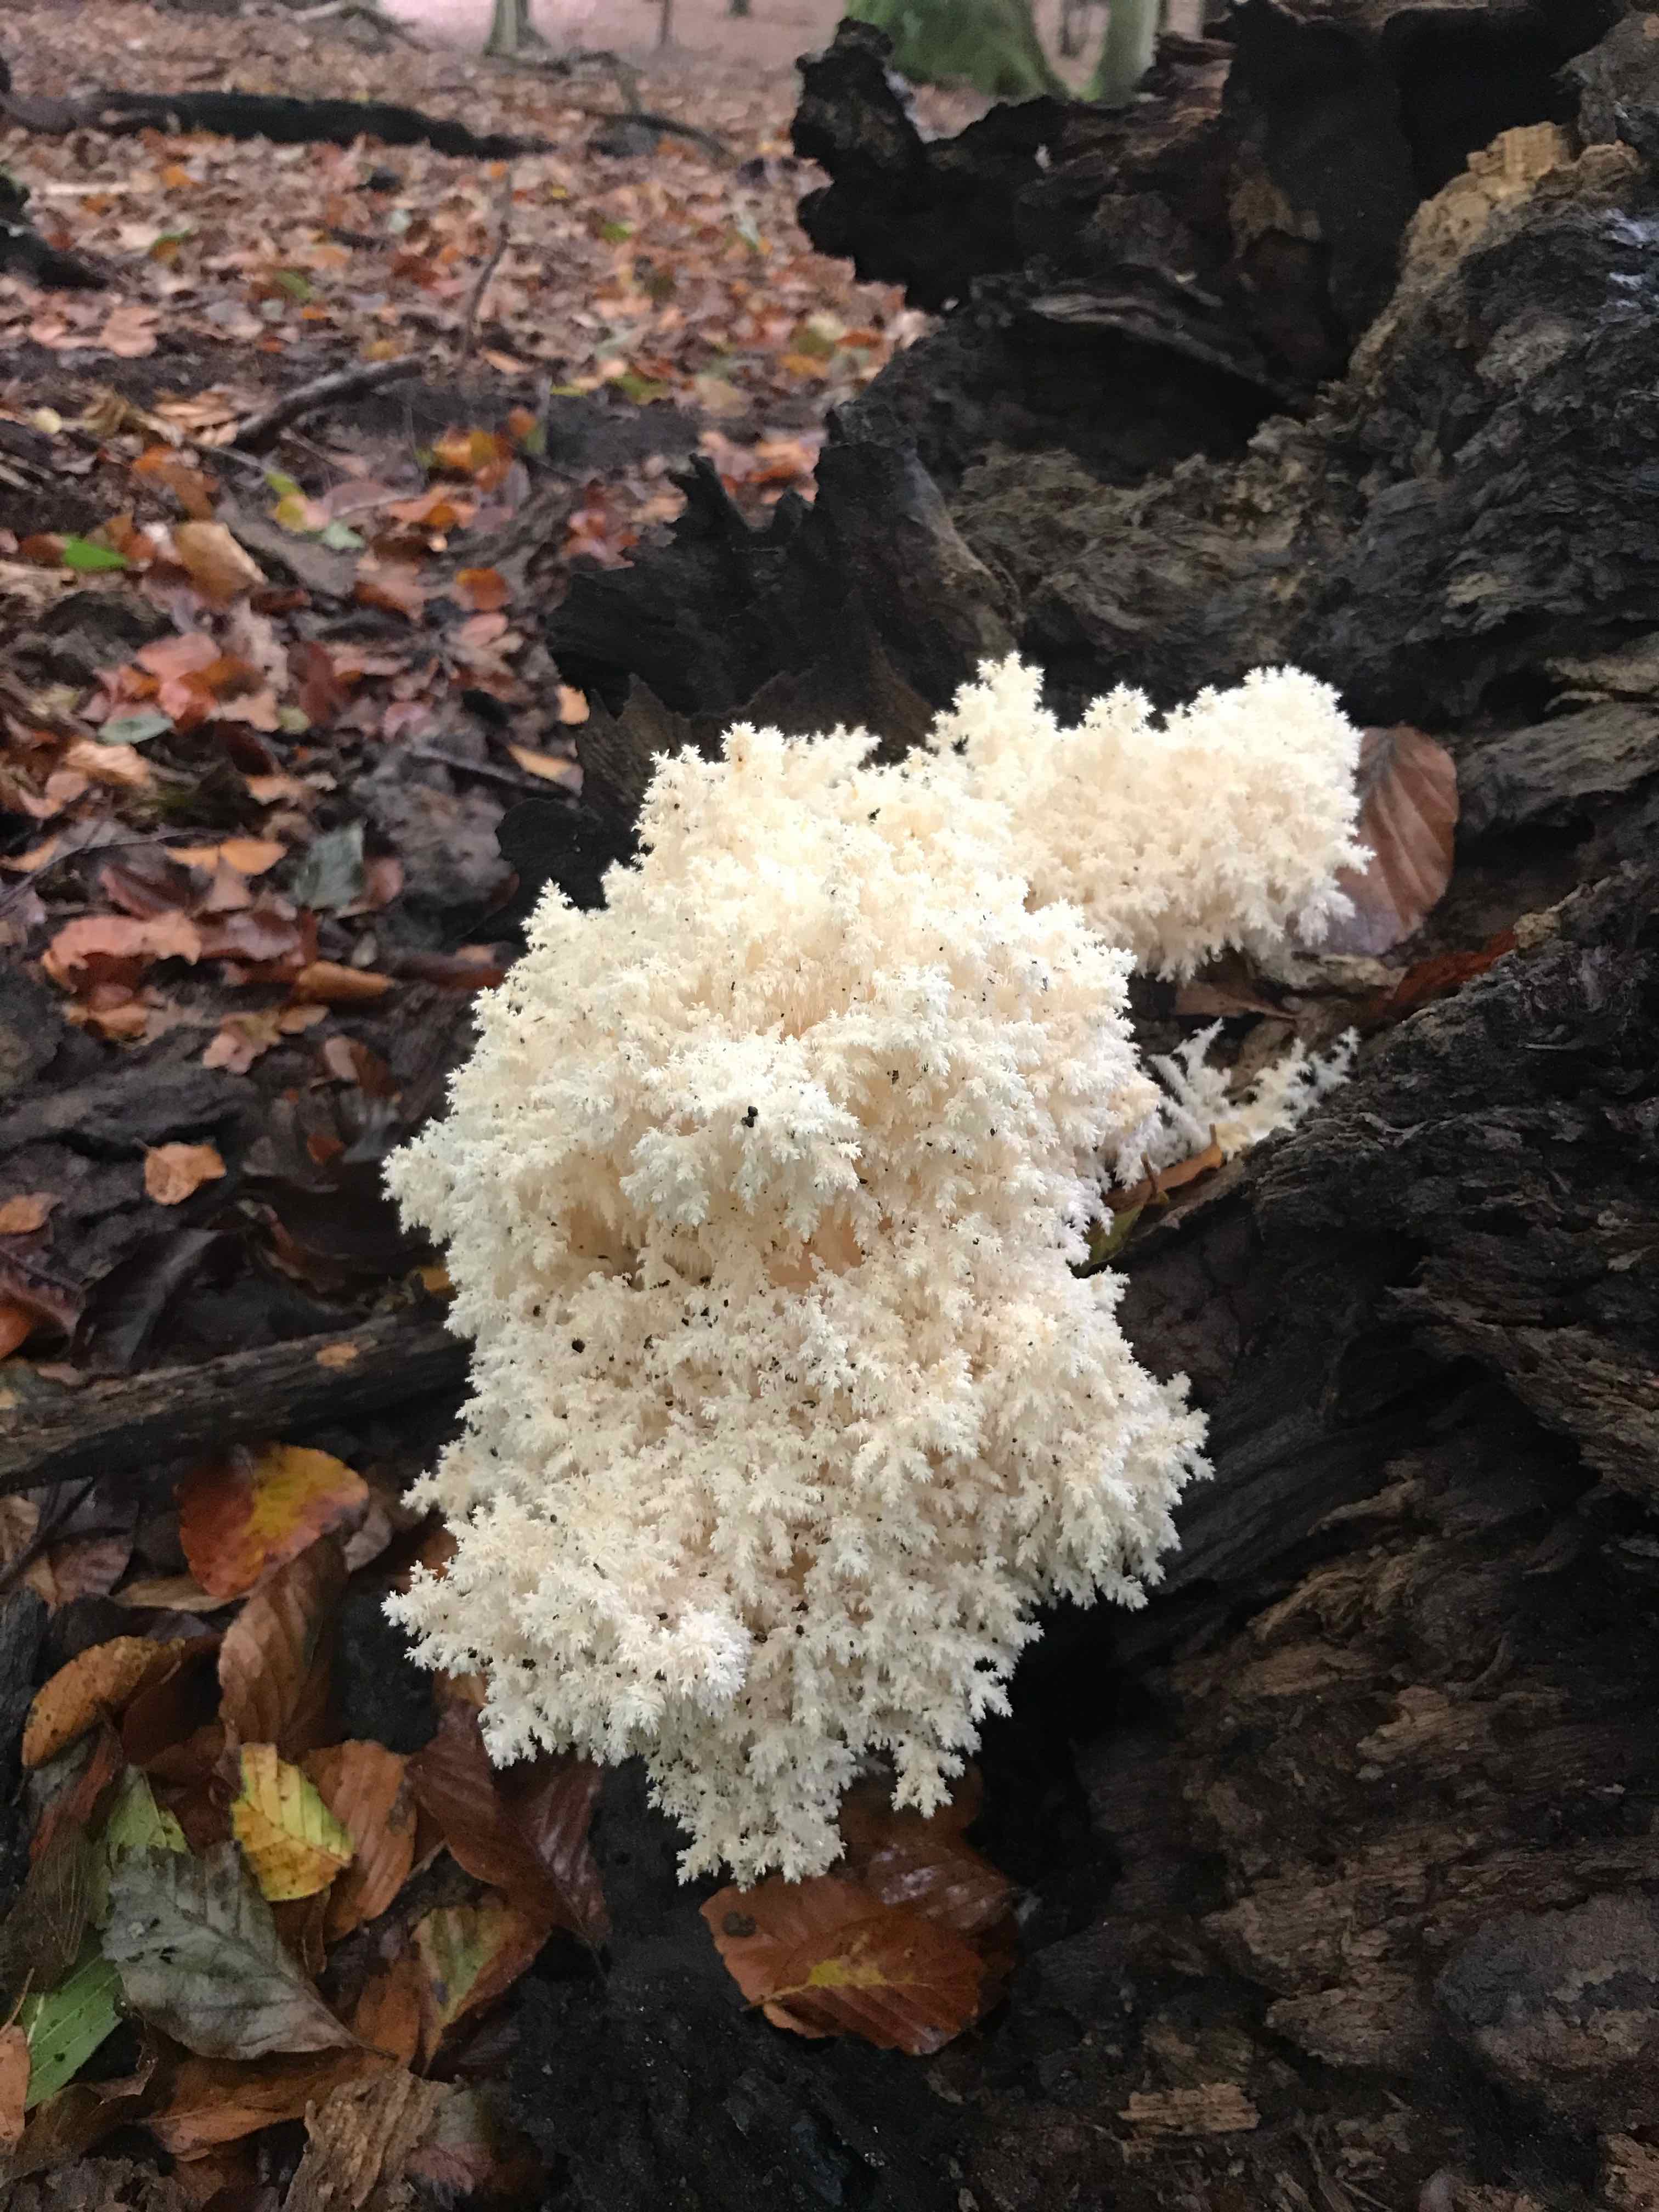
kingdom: Fungi
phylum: Basidiomycota
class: Agaricomycetes
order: Russulales
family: Hericiaceae
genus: Hericium
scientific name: Hericium coralloides
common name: koralpigsvamp
